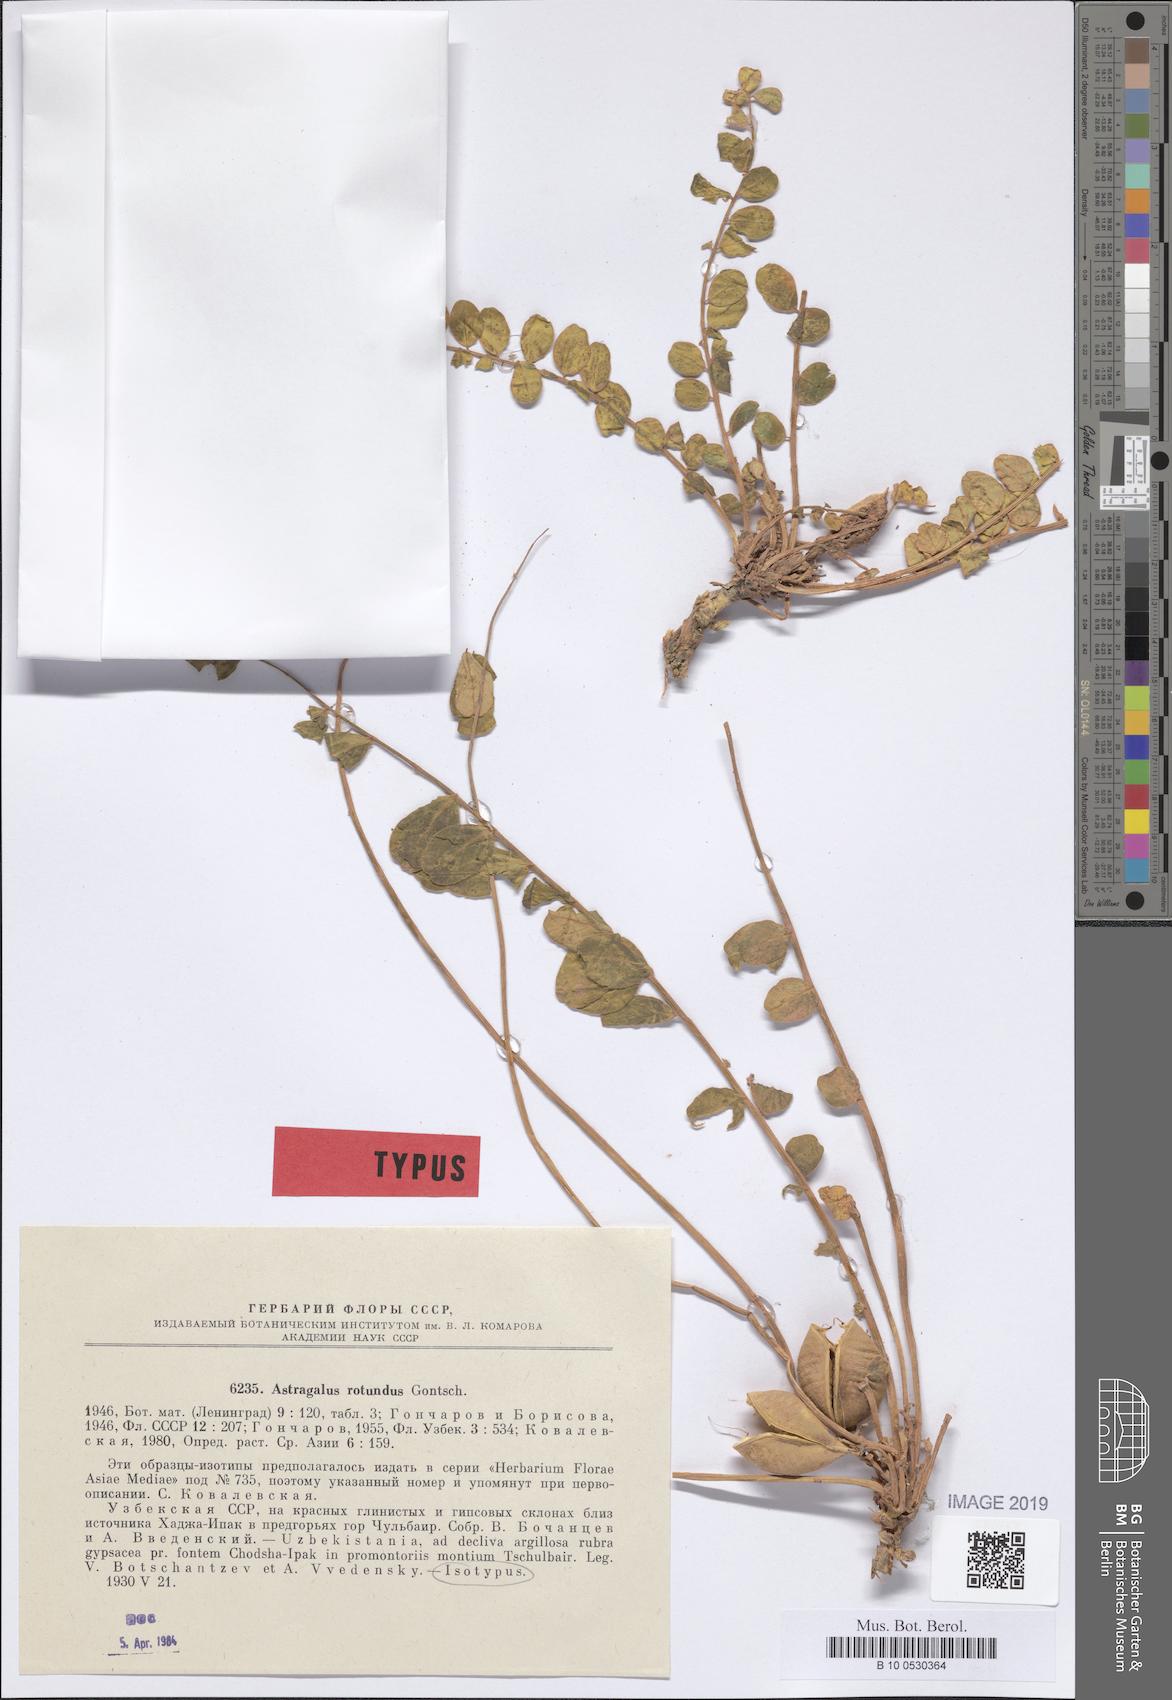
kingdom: Plantae
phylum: Tracheophyta
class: Magnoliopsida
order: Fabales
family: Fabaceae
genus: Astragalus
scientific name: Astragalus rotundus
